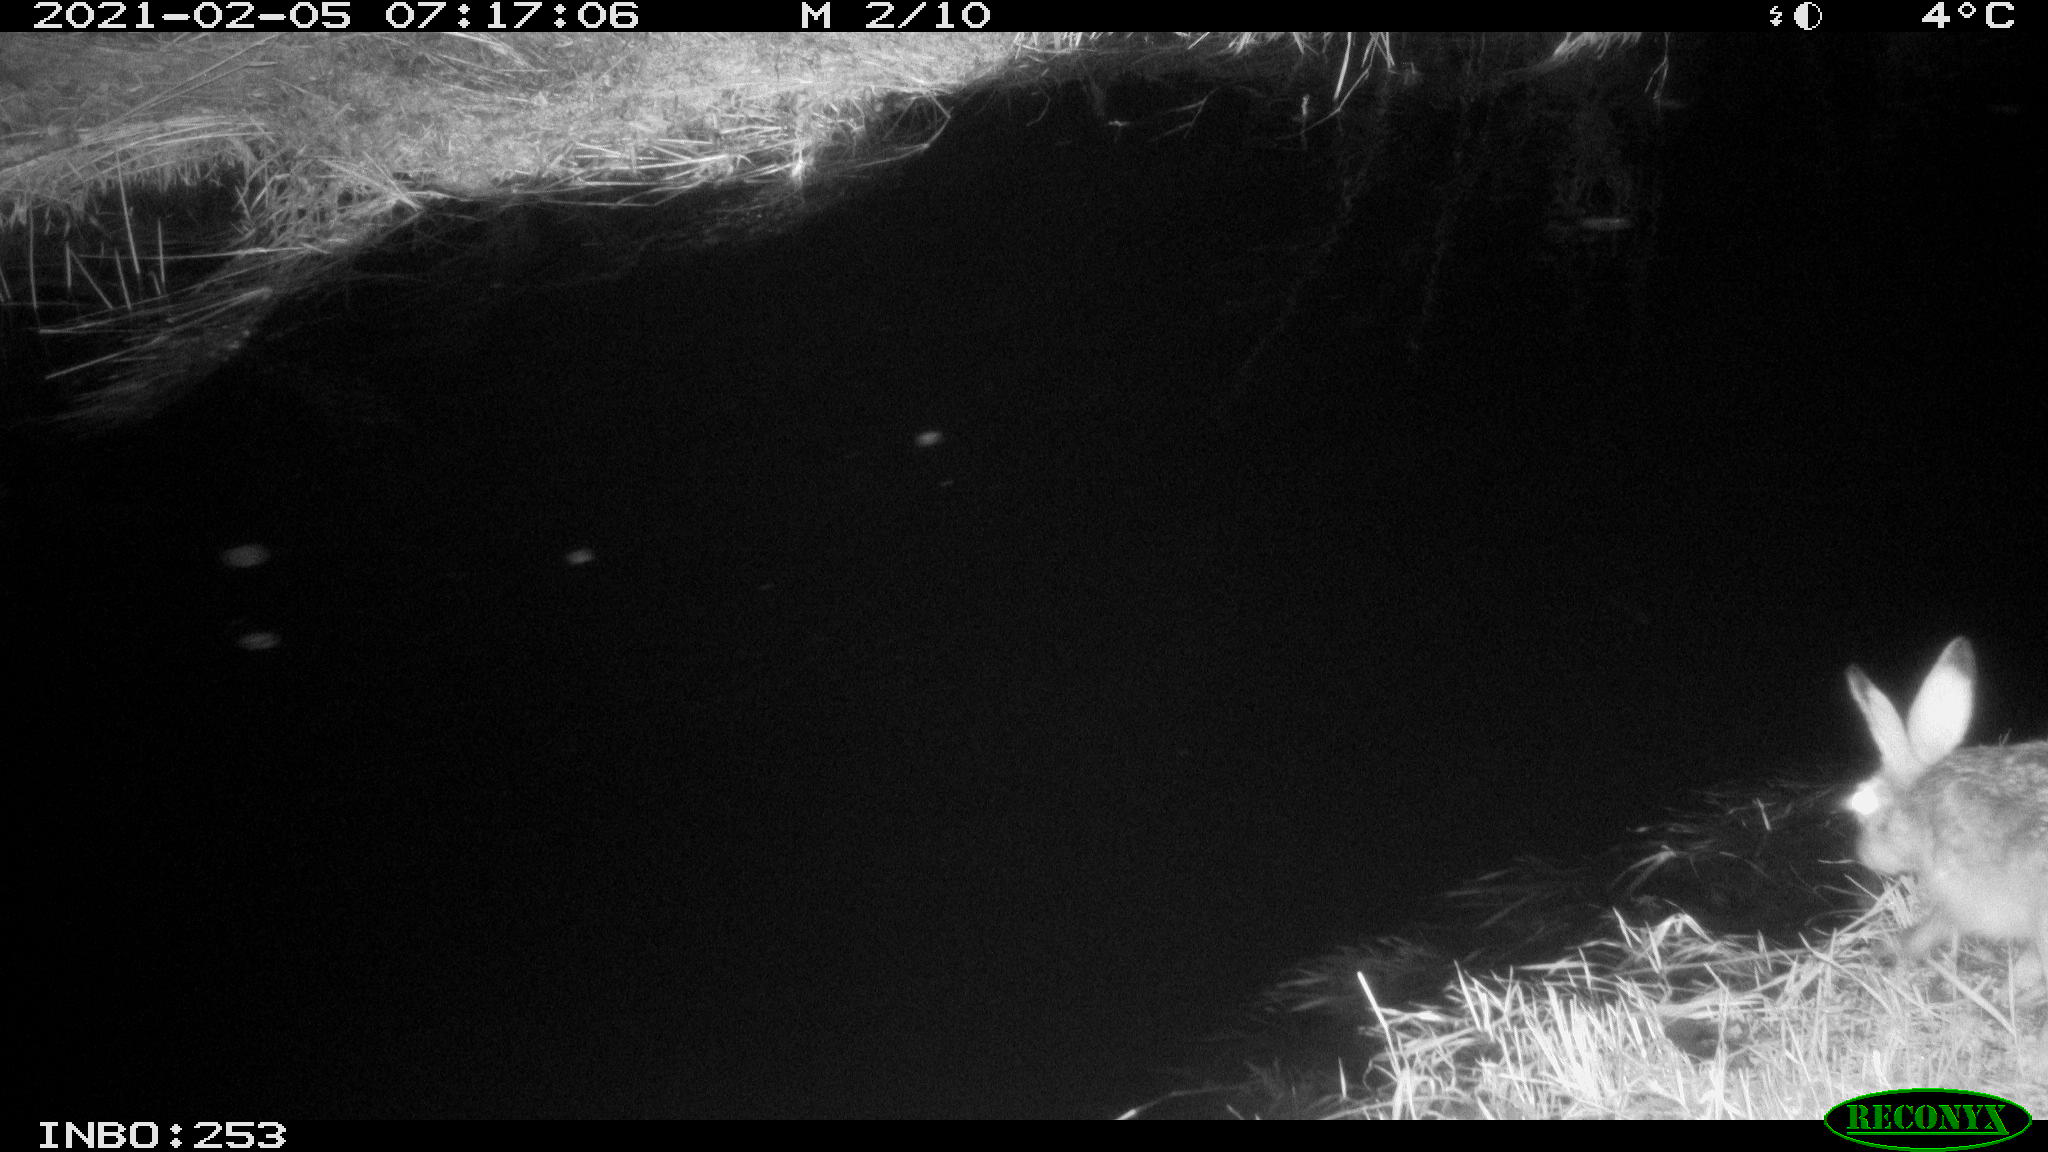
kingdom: Animalia
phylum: Chordata
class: Mammalia
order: Lagomorpha
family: Leporidae
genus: Lepus
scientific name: Lepus europaeus
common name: European hare
